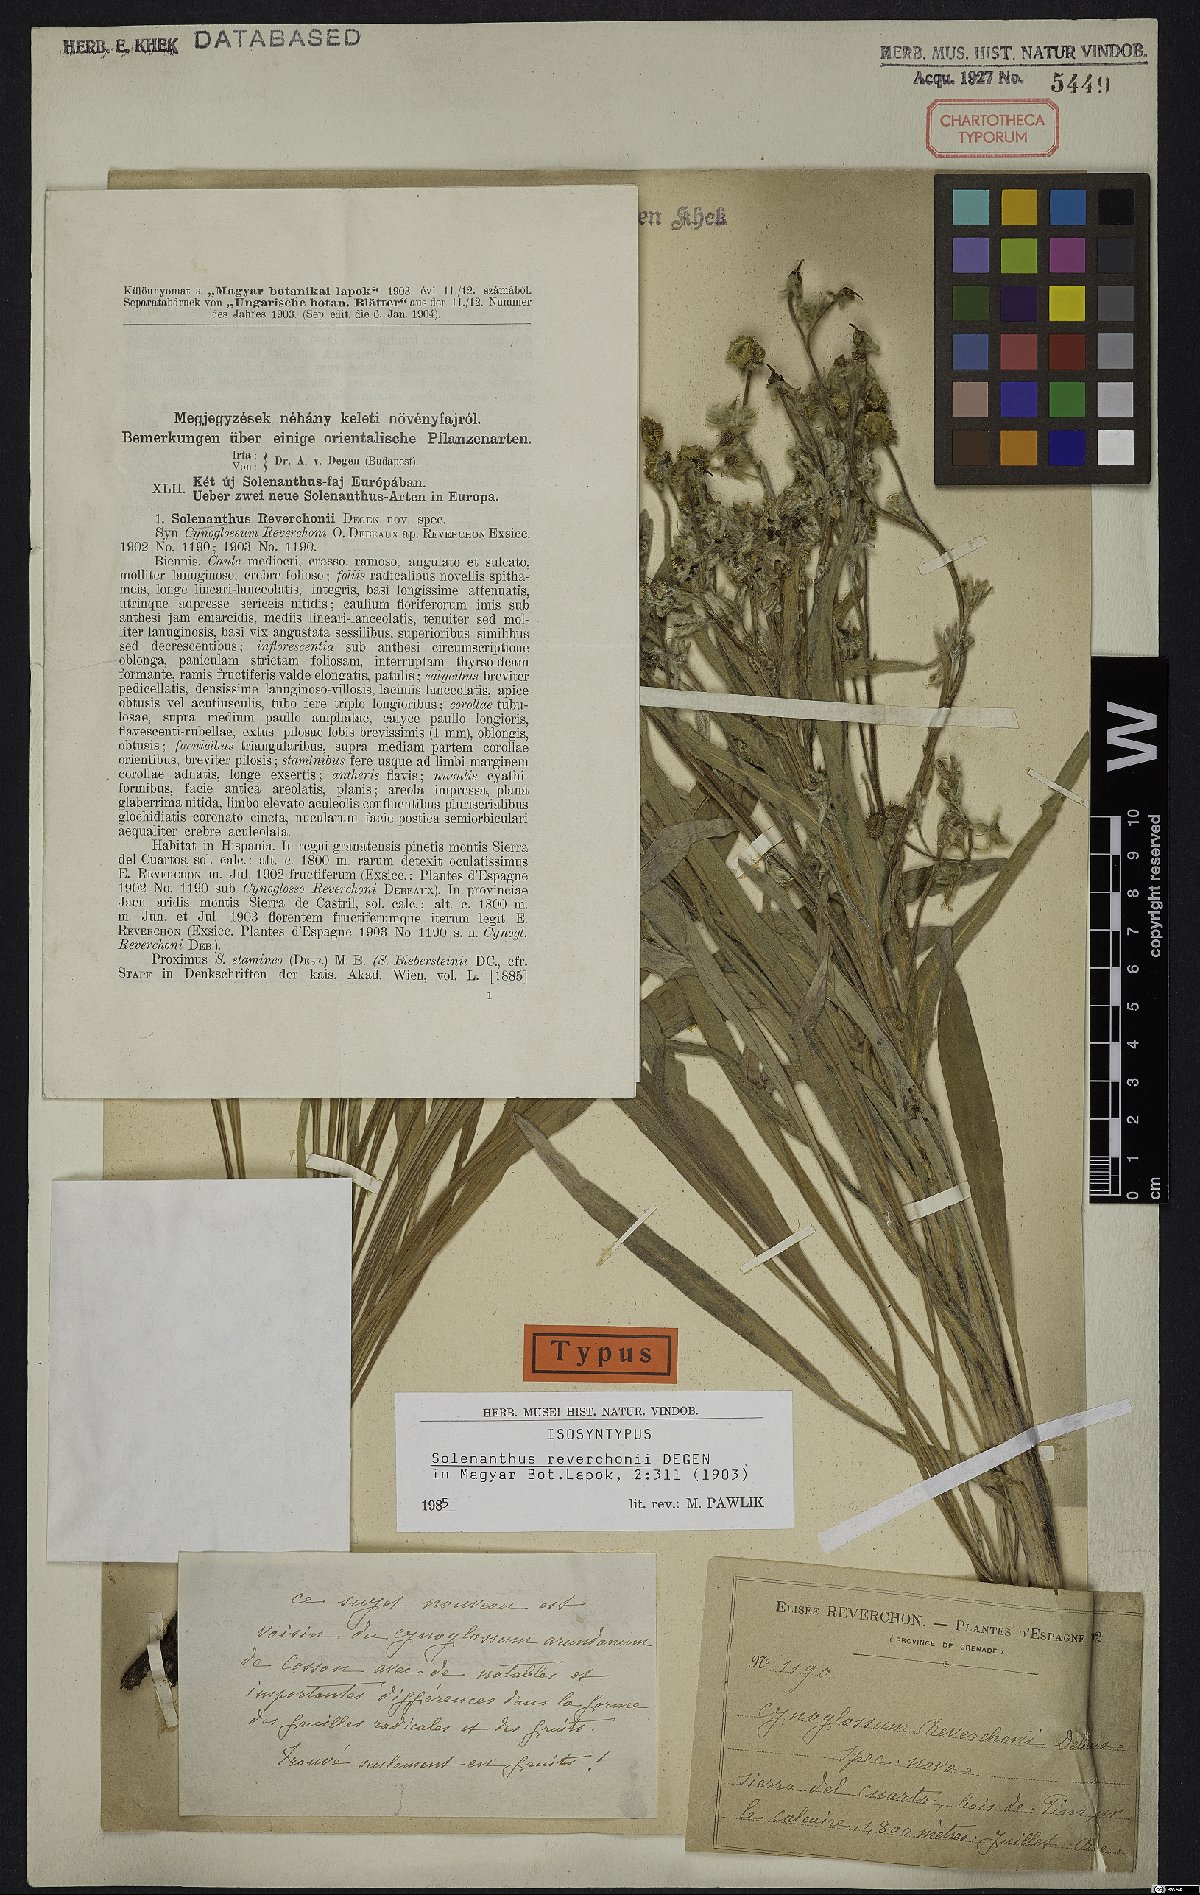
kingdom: Plantae
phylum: Tracheophyta
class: Magnoliopsida
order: Boraginales
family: Boraginaceae
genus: Solenanthus
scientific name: Solenanthus reverchonii
